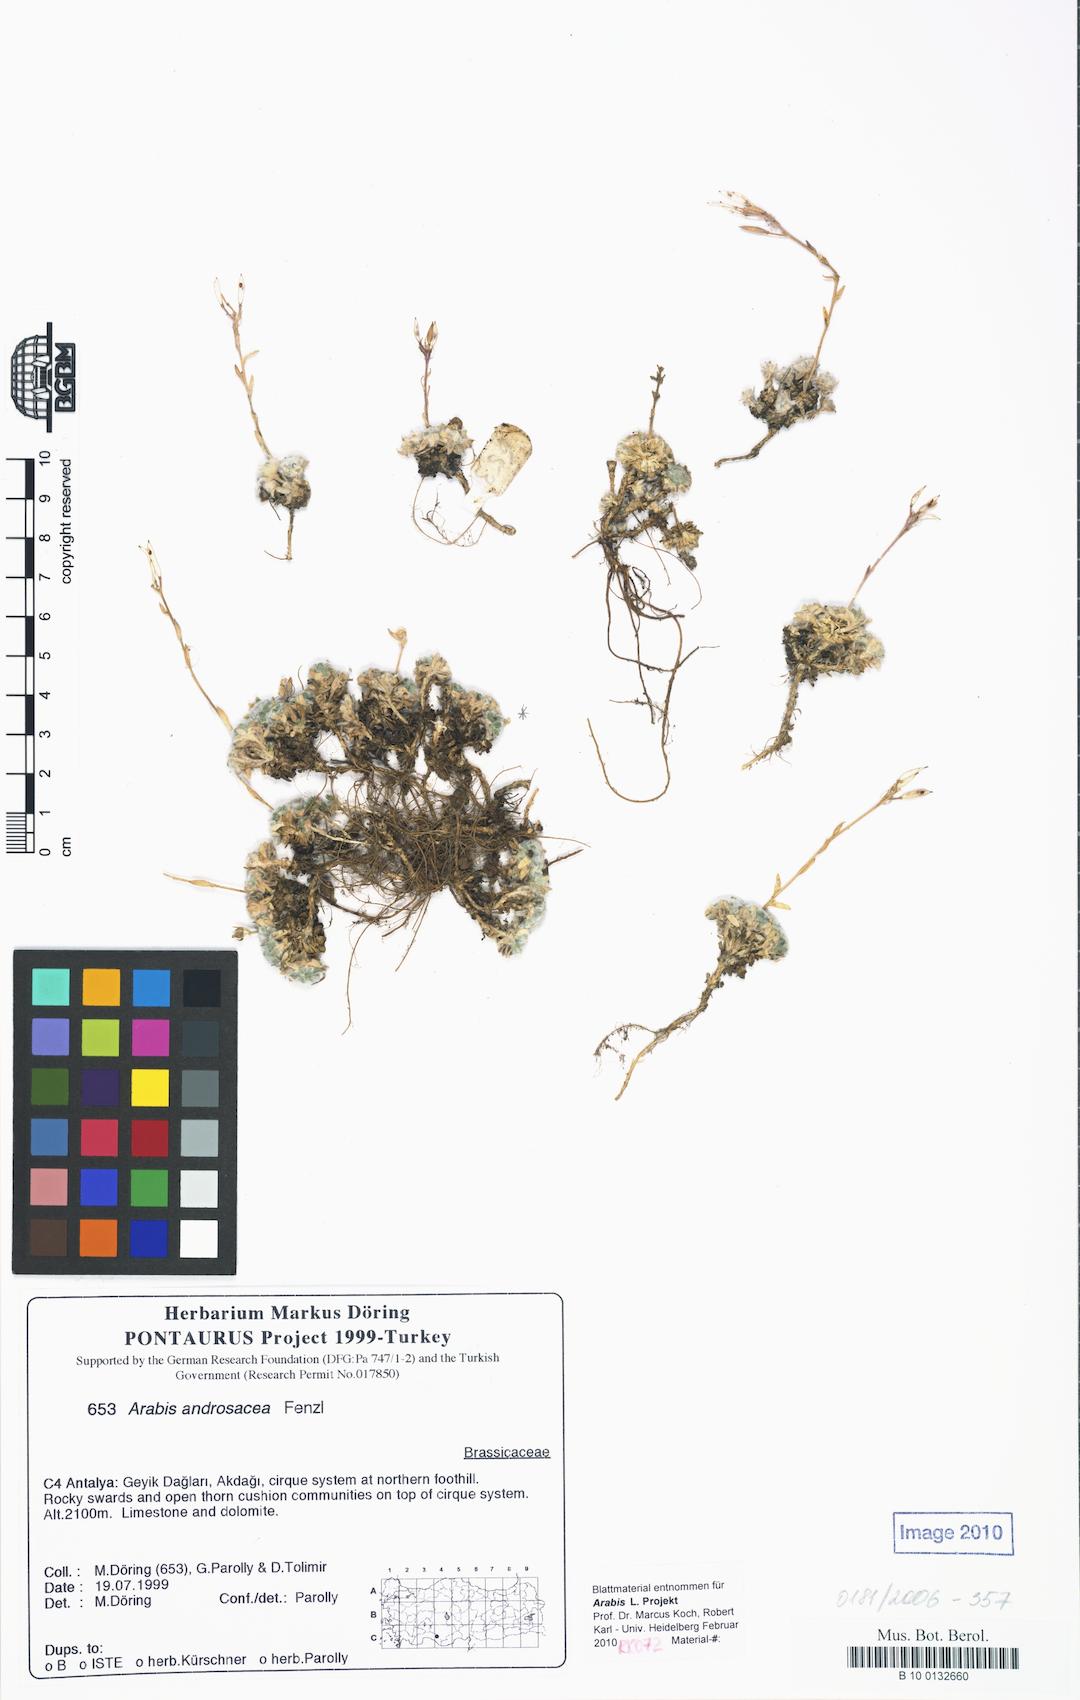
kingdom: Plantae
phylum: Tracheophyta
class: Magnoliopsida
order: Brassicales
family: Brassicaceae
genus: Arabis
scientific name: Arabis androsacea
